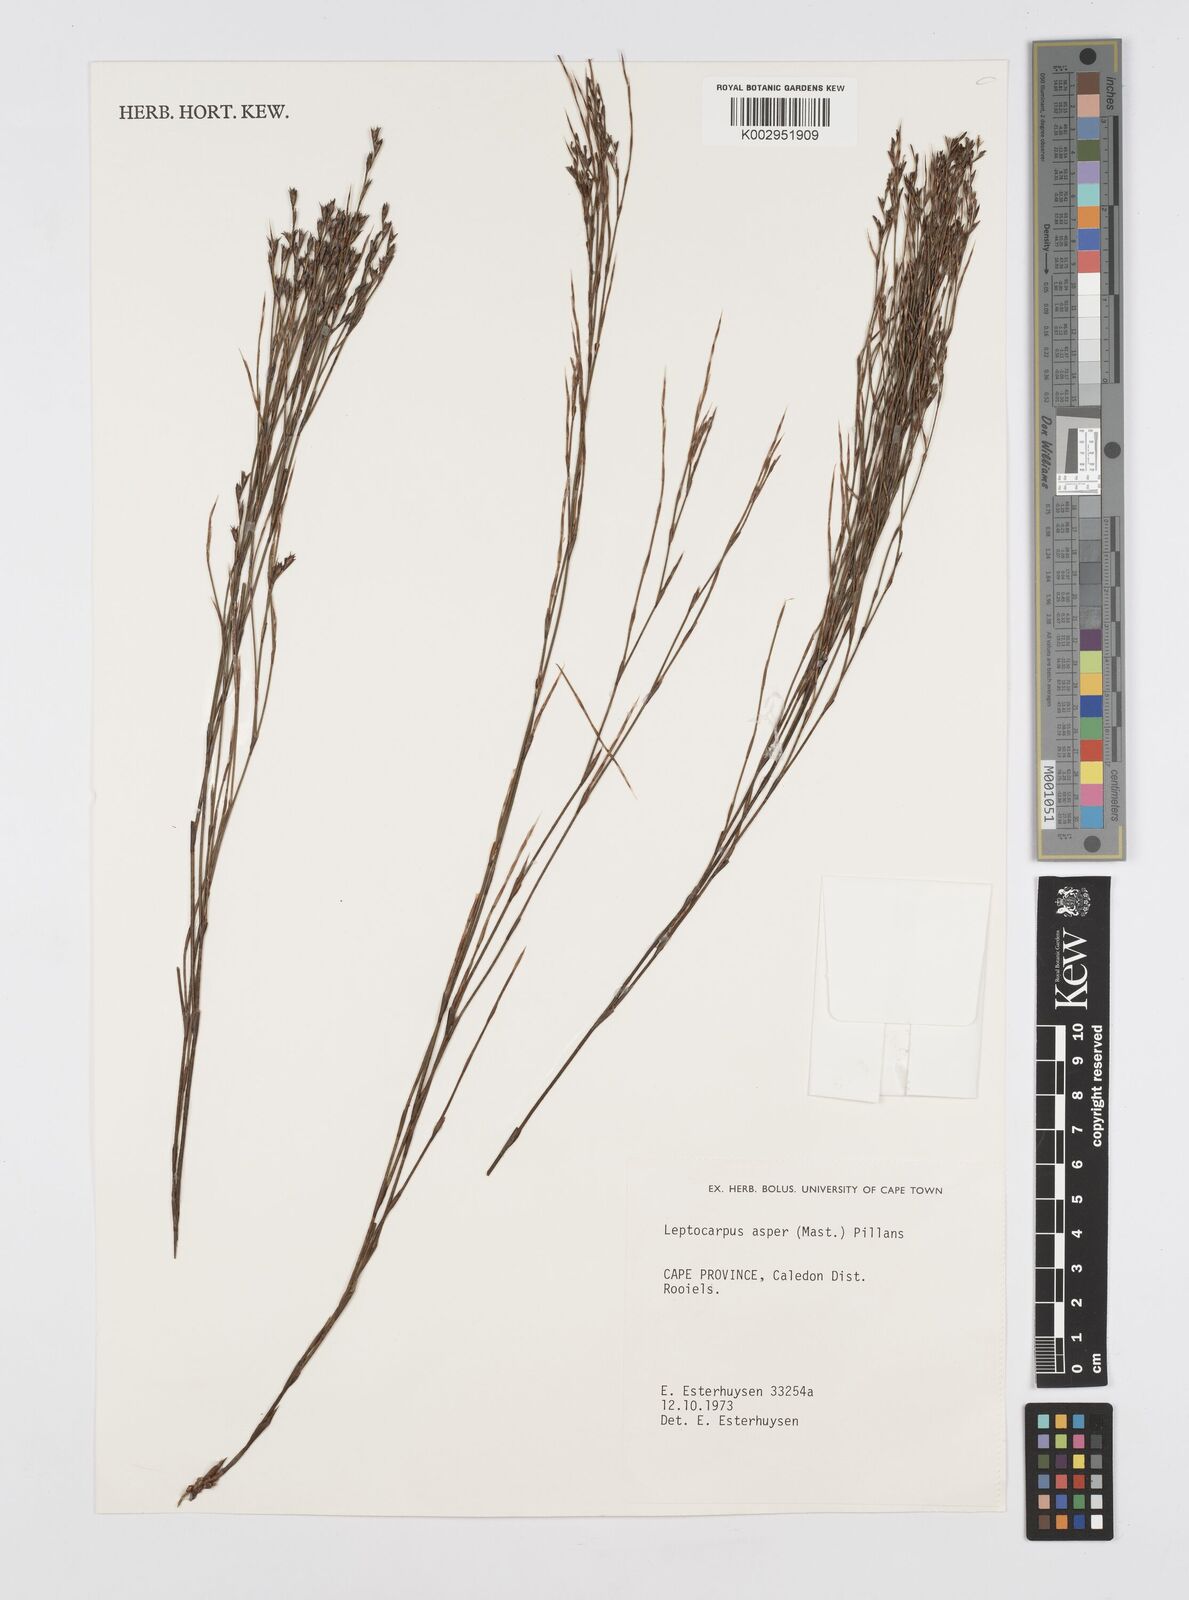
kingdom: Plantae
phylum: Tracheophyta
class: Liliopsida
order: Poales
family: Restionaceae
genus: Restio
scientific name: Restio asperus
